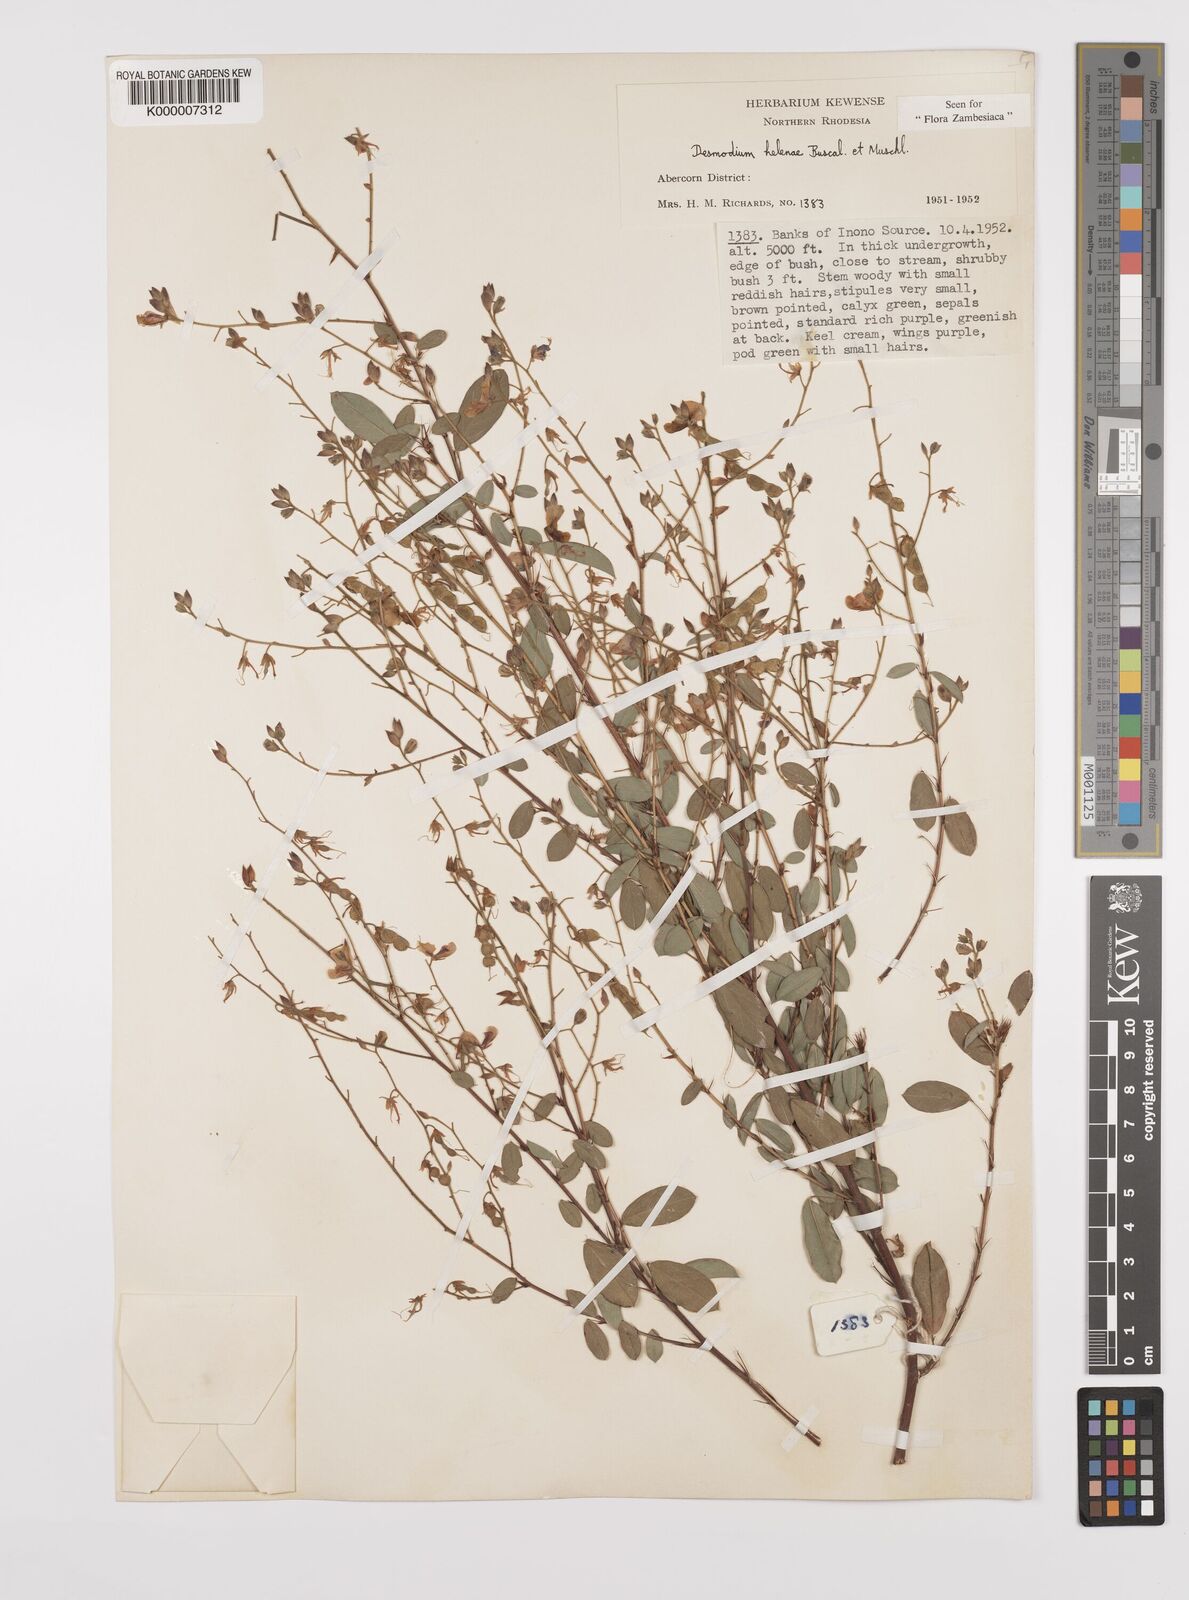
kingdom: Plantae
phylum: Tracheophyta
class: Magnoliopsida
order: Fabales
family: Fabaceae
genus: Grona
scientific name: Grona helenae
